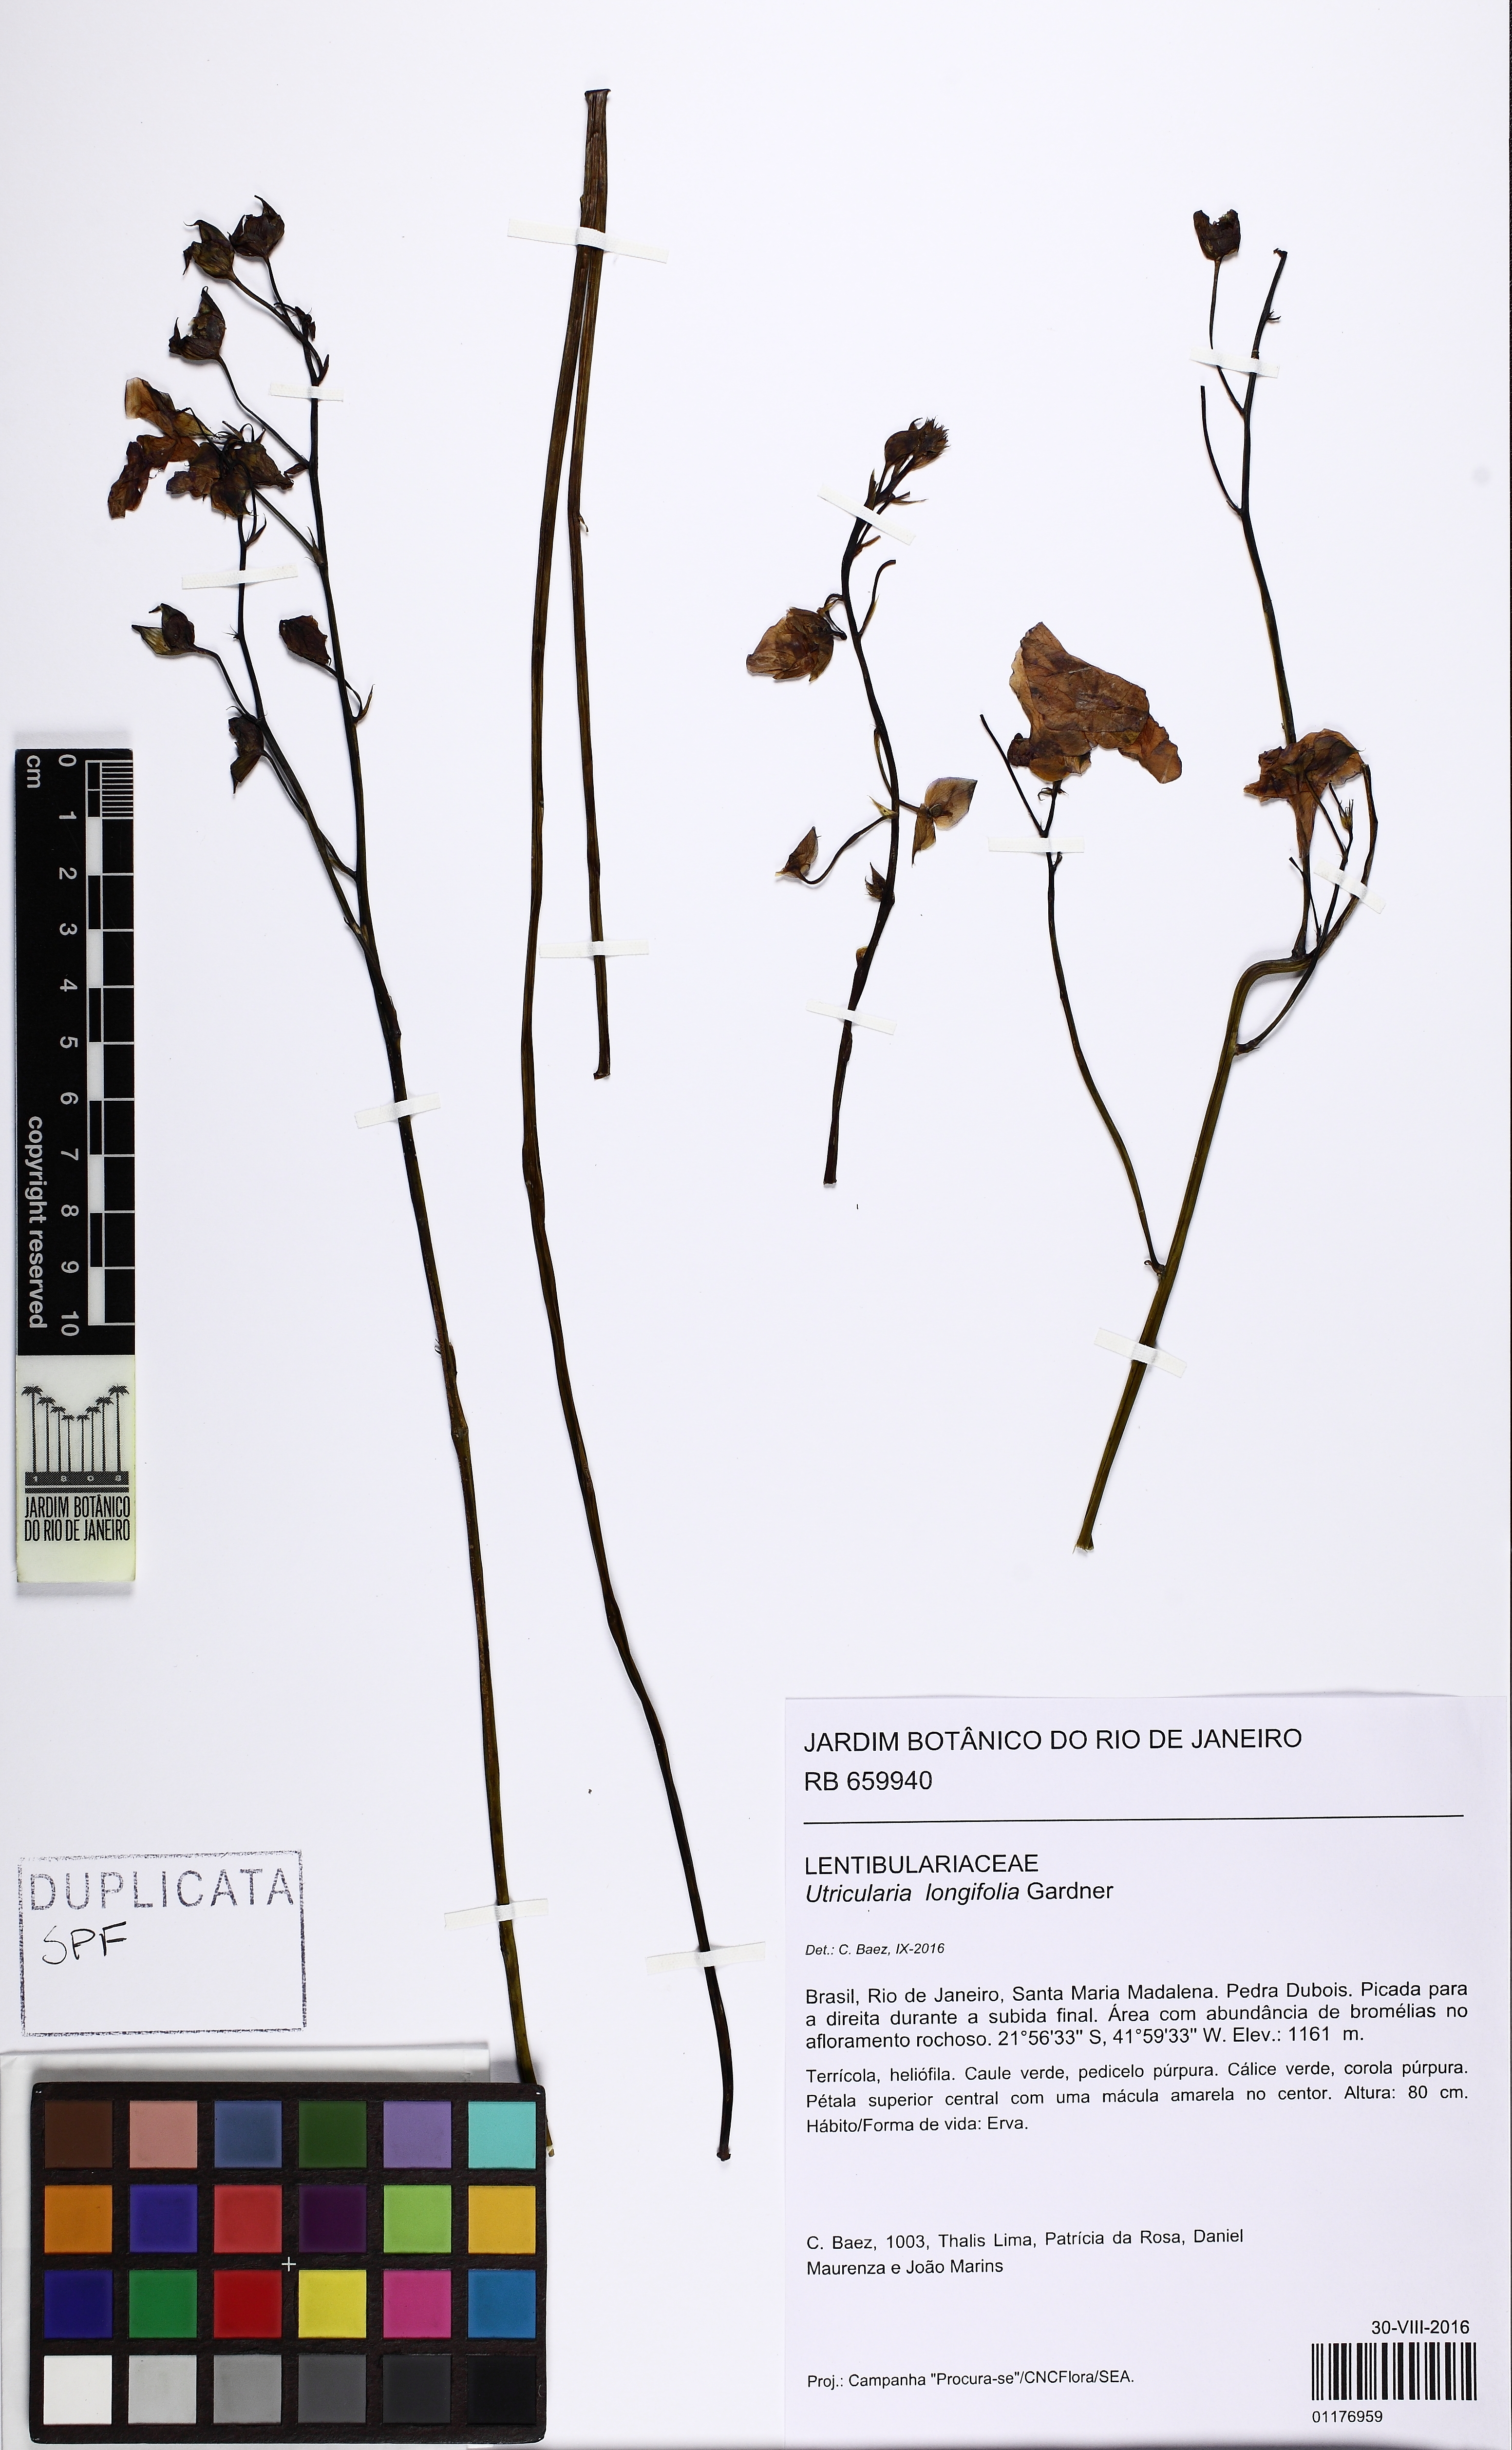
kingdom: Plantae
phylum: Tracheophyta
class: Magnoliopsida
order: Lamiales
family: Lentibulariaceae
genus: Utricularia
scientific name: Utricularia longifolia
